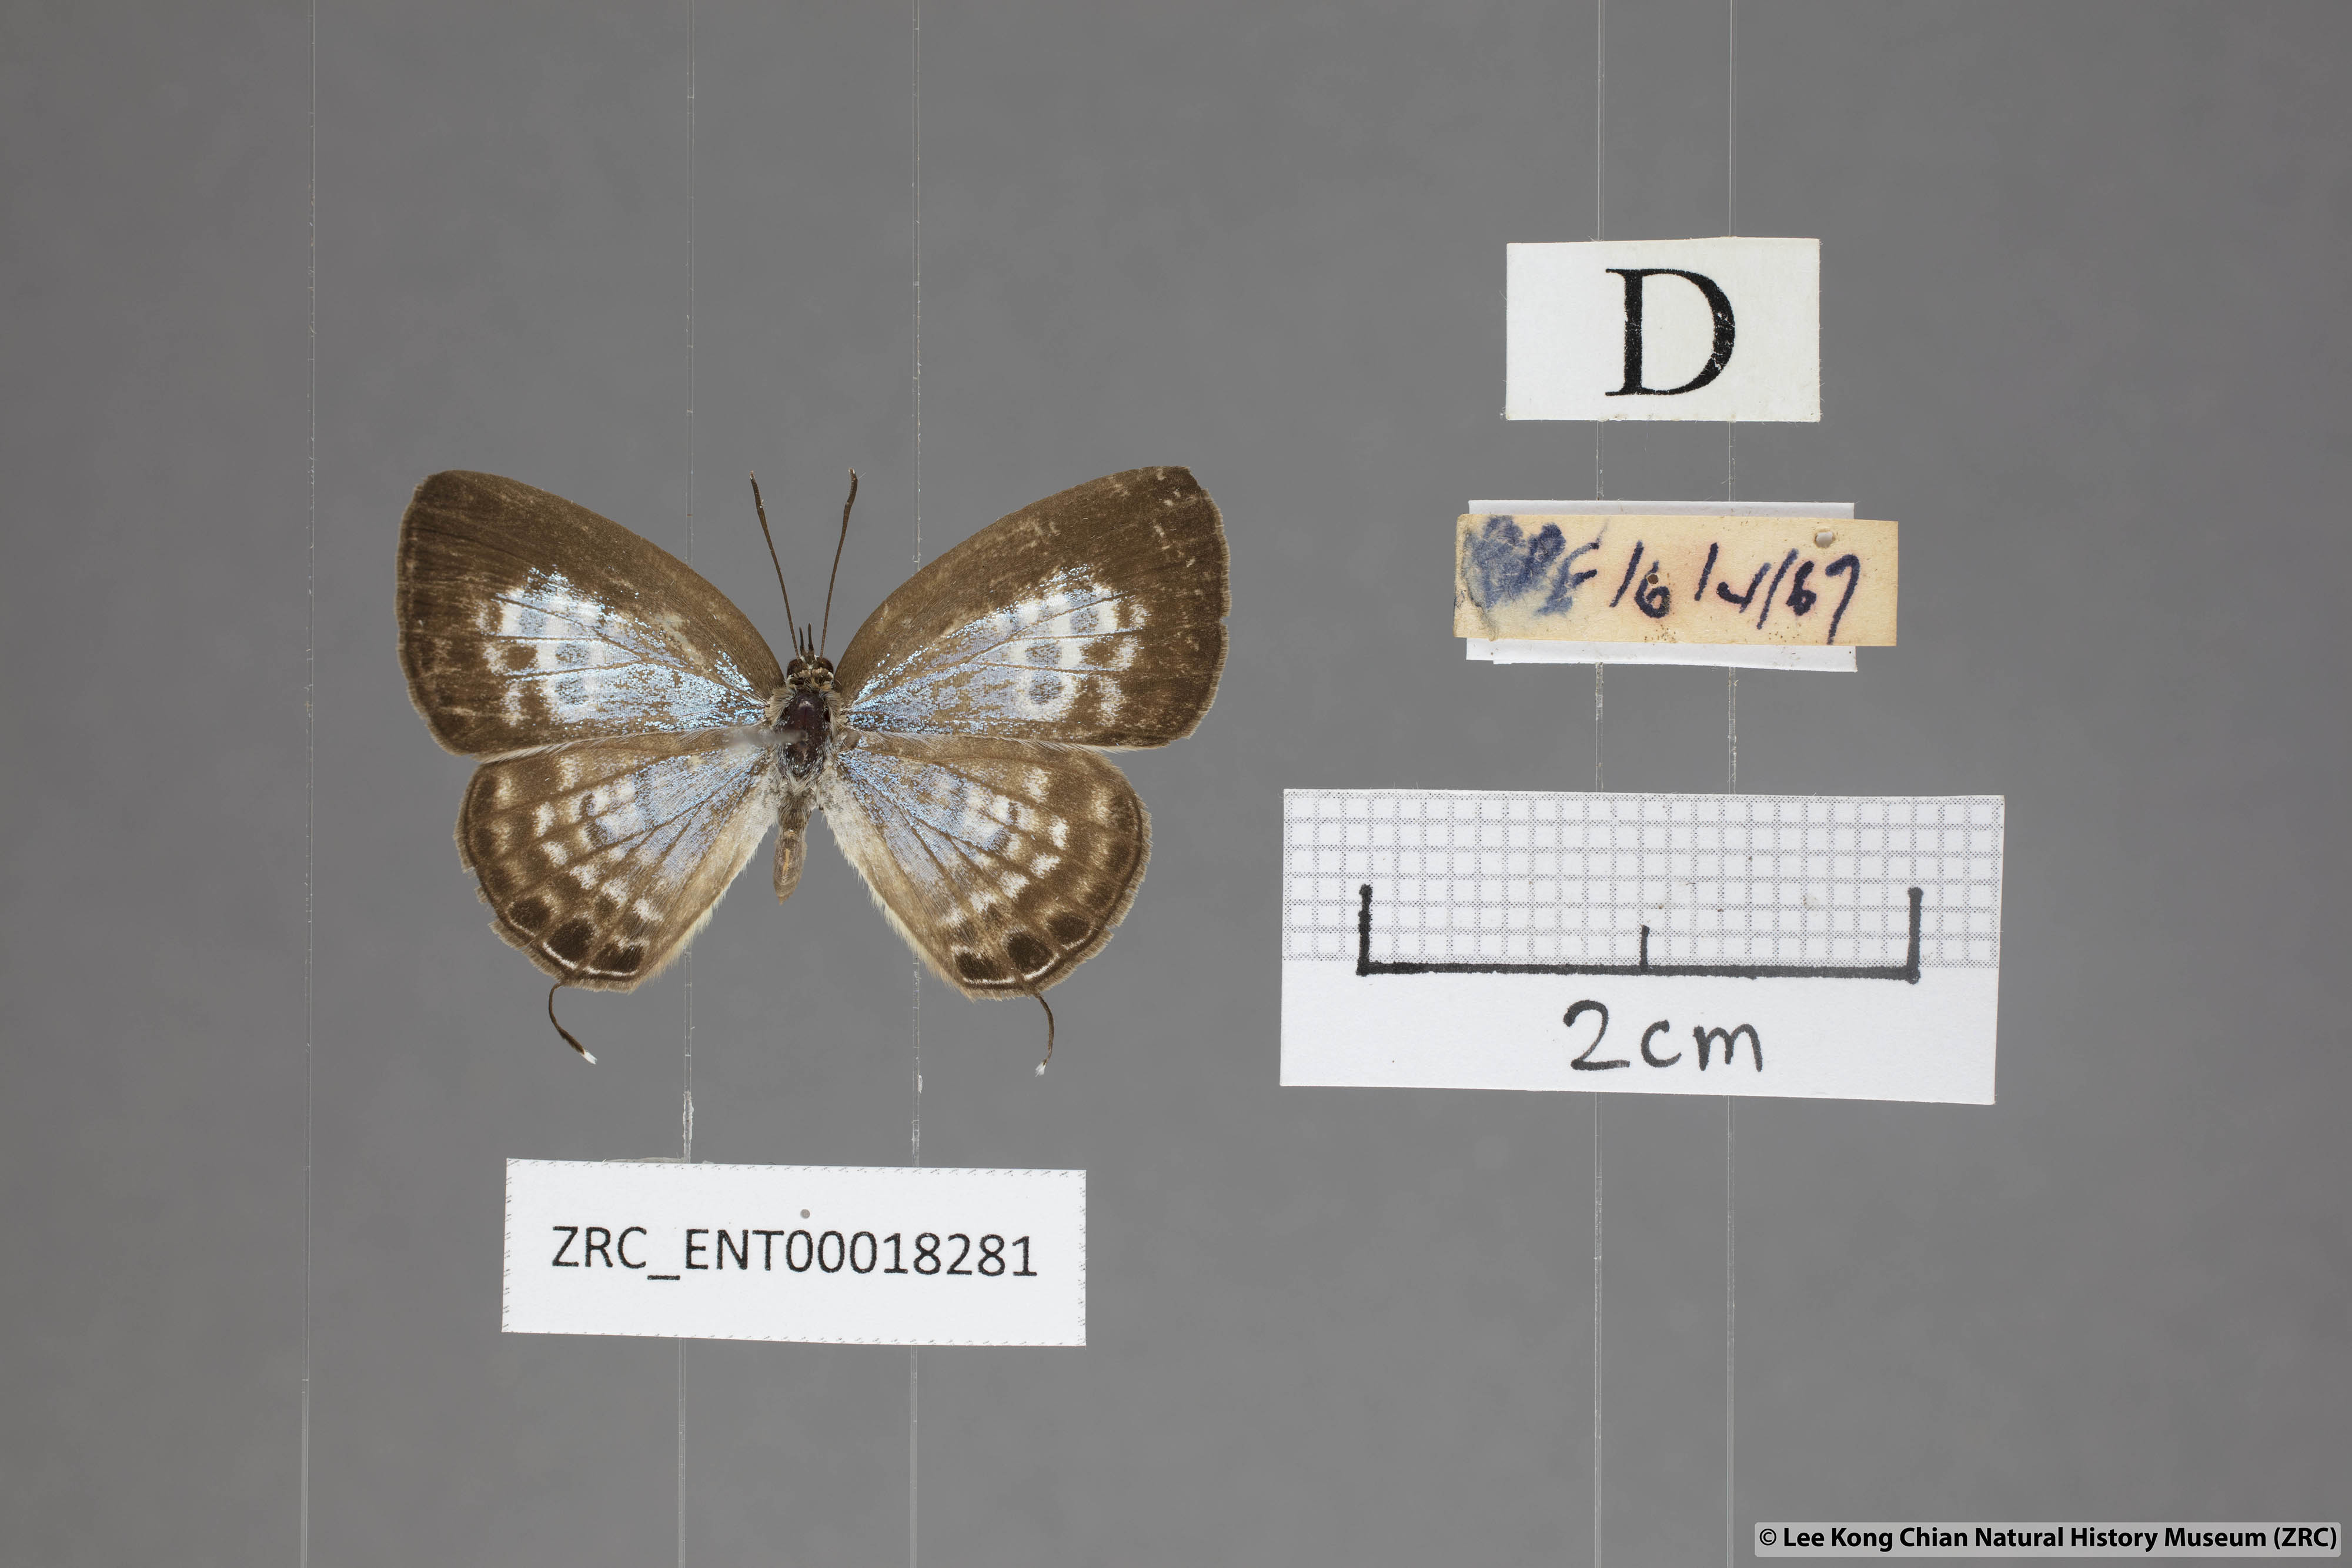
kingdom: Animalia
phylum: Arthropoda
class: Insecta
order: Lepidoptera
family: Lycaenidae
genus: Nacaduba
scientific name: Nacaduba angusta
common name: White four-line blue
